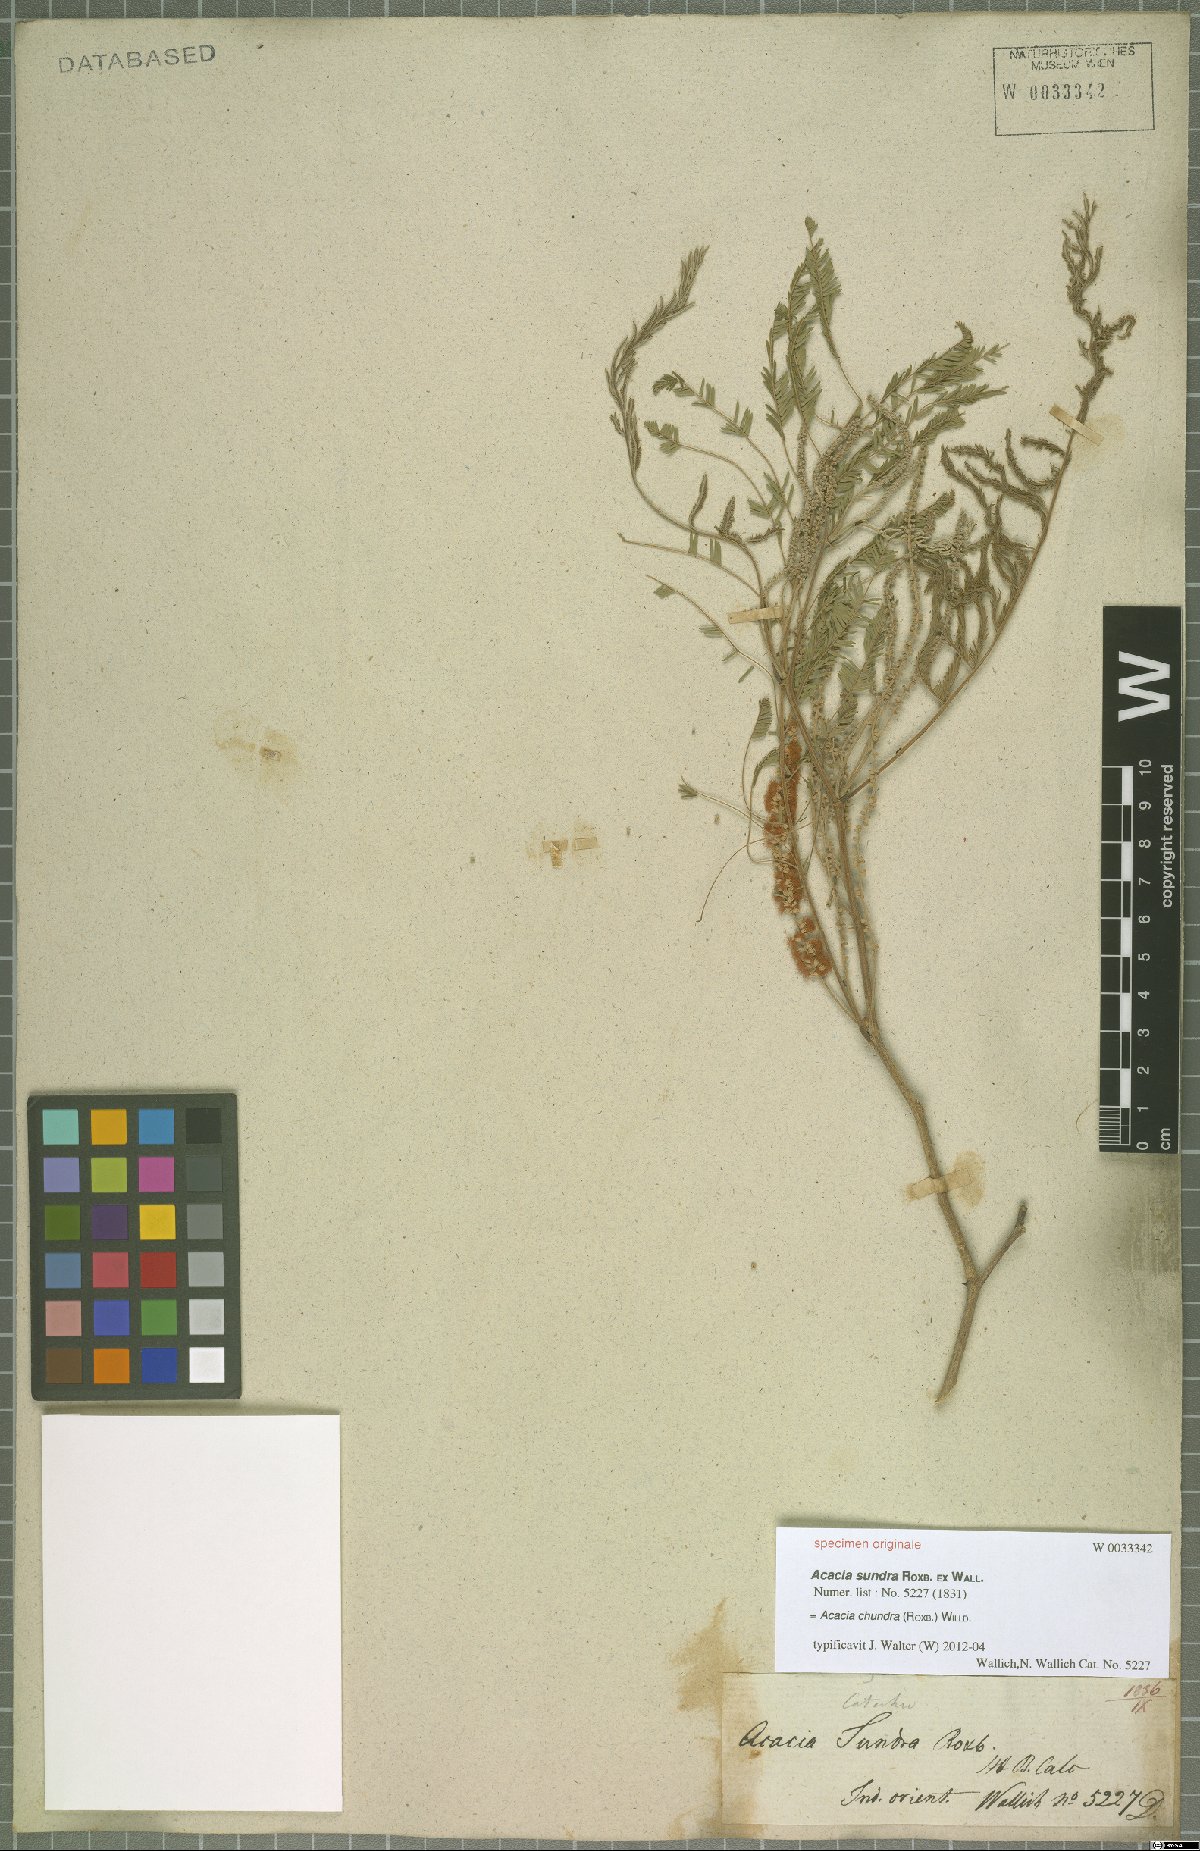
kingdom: Plantae
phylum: Tracheophyta
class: Magnoliopsida
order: Fabales
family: Fabaceae
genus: Senegalia
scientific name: Senegalia chundra
